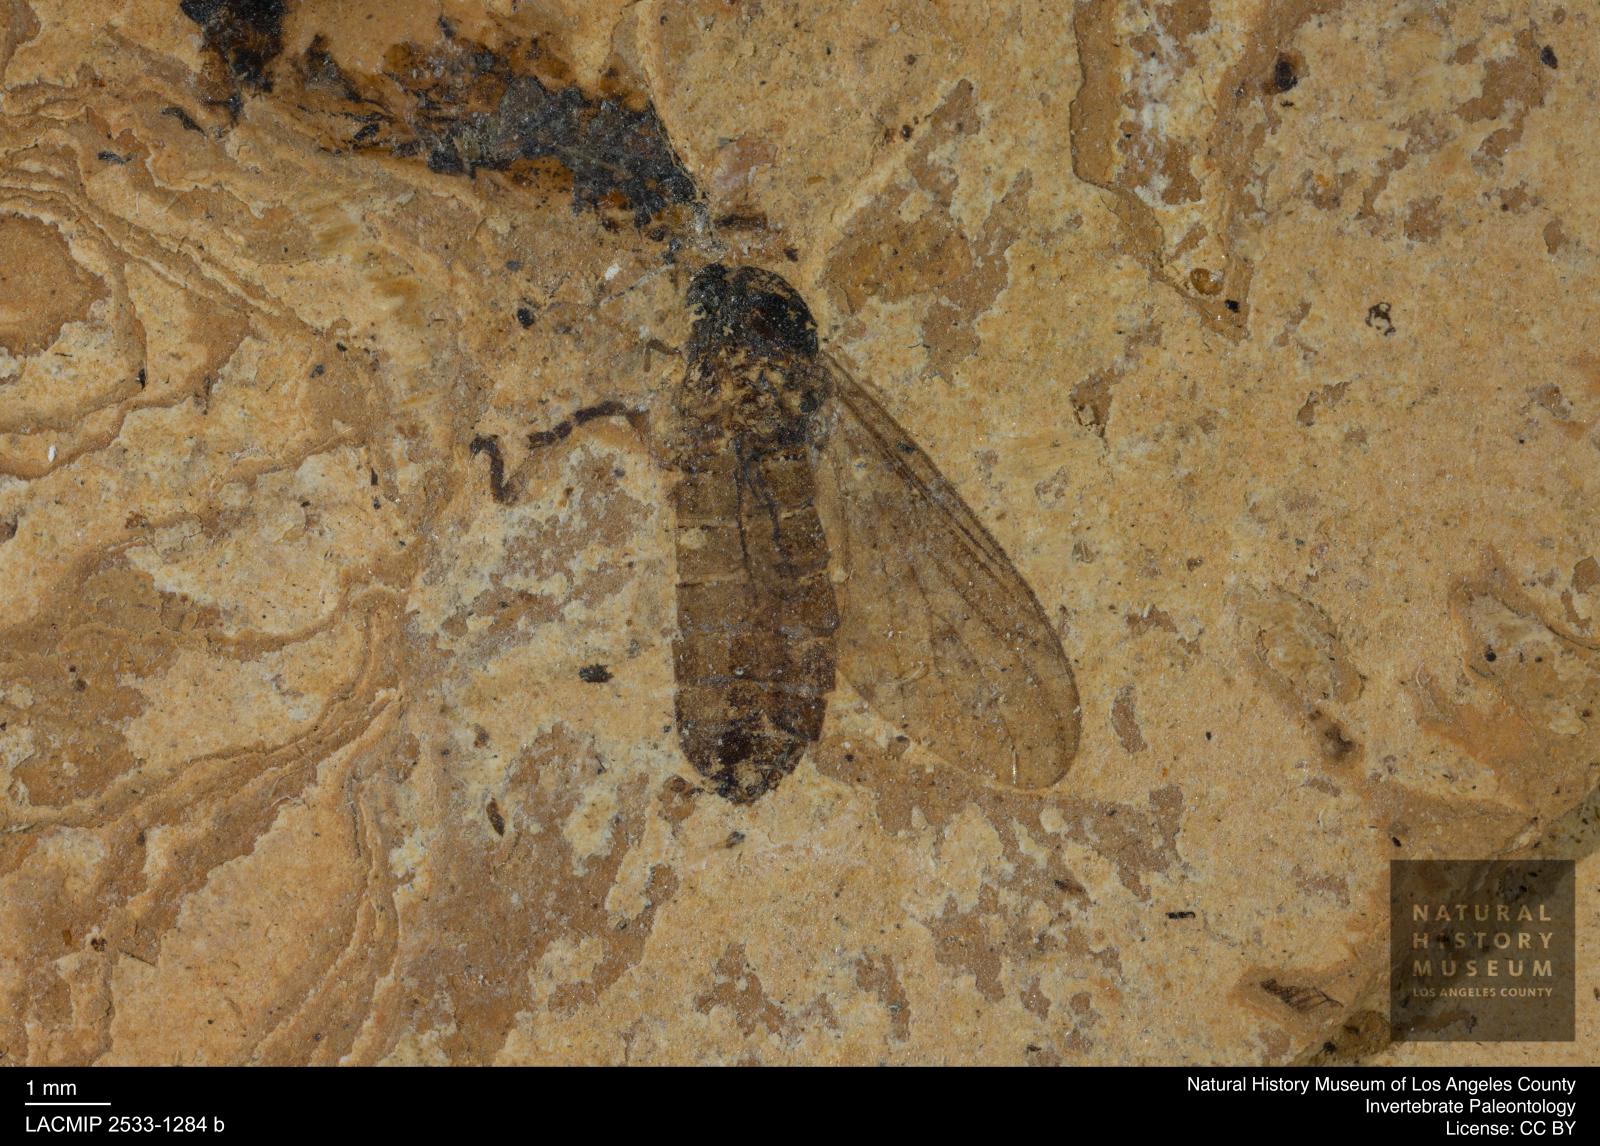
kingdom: Animalia
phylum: Arthropoda
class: Insecta
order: Diptera
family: Bibionidae
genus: Plecia
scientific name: Plecia pinguis
